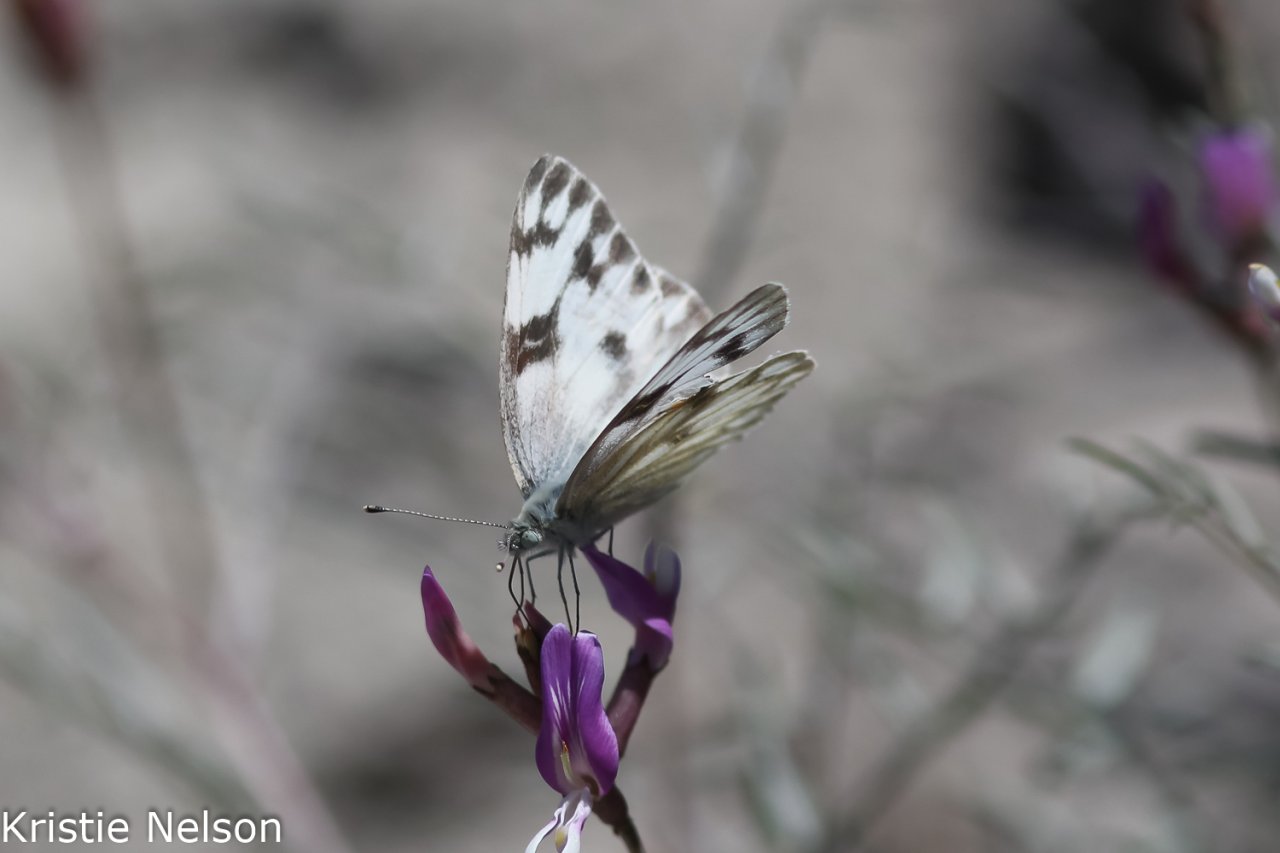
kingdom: Animalia
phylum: Arthropoda
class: Insecta
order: Lepidoptera
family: Pieridae
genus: Pontia
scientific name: Pontia protodice
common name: Checkered White
